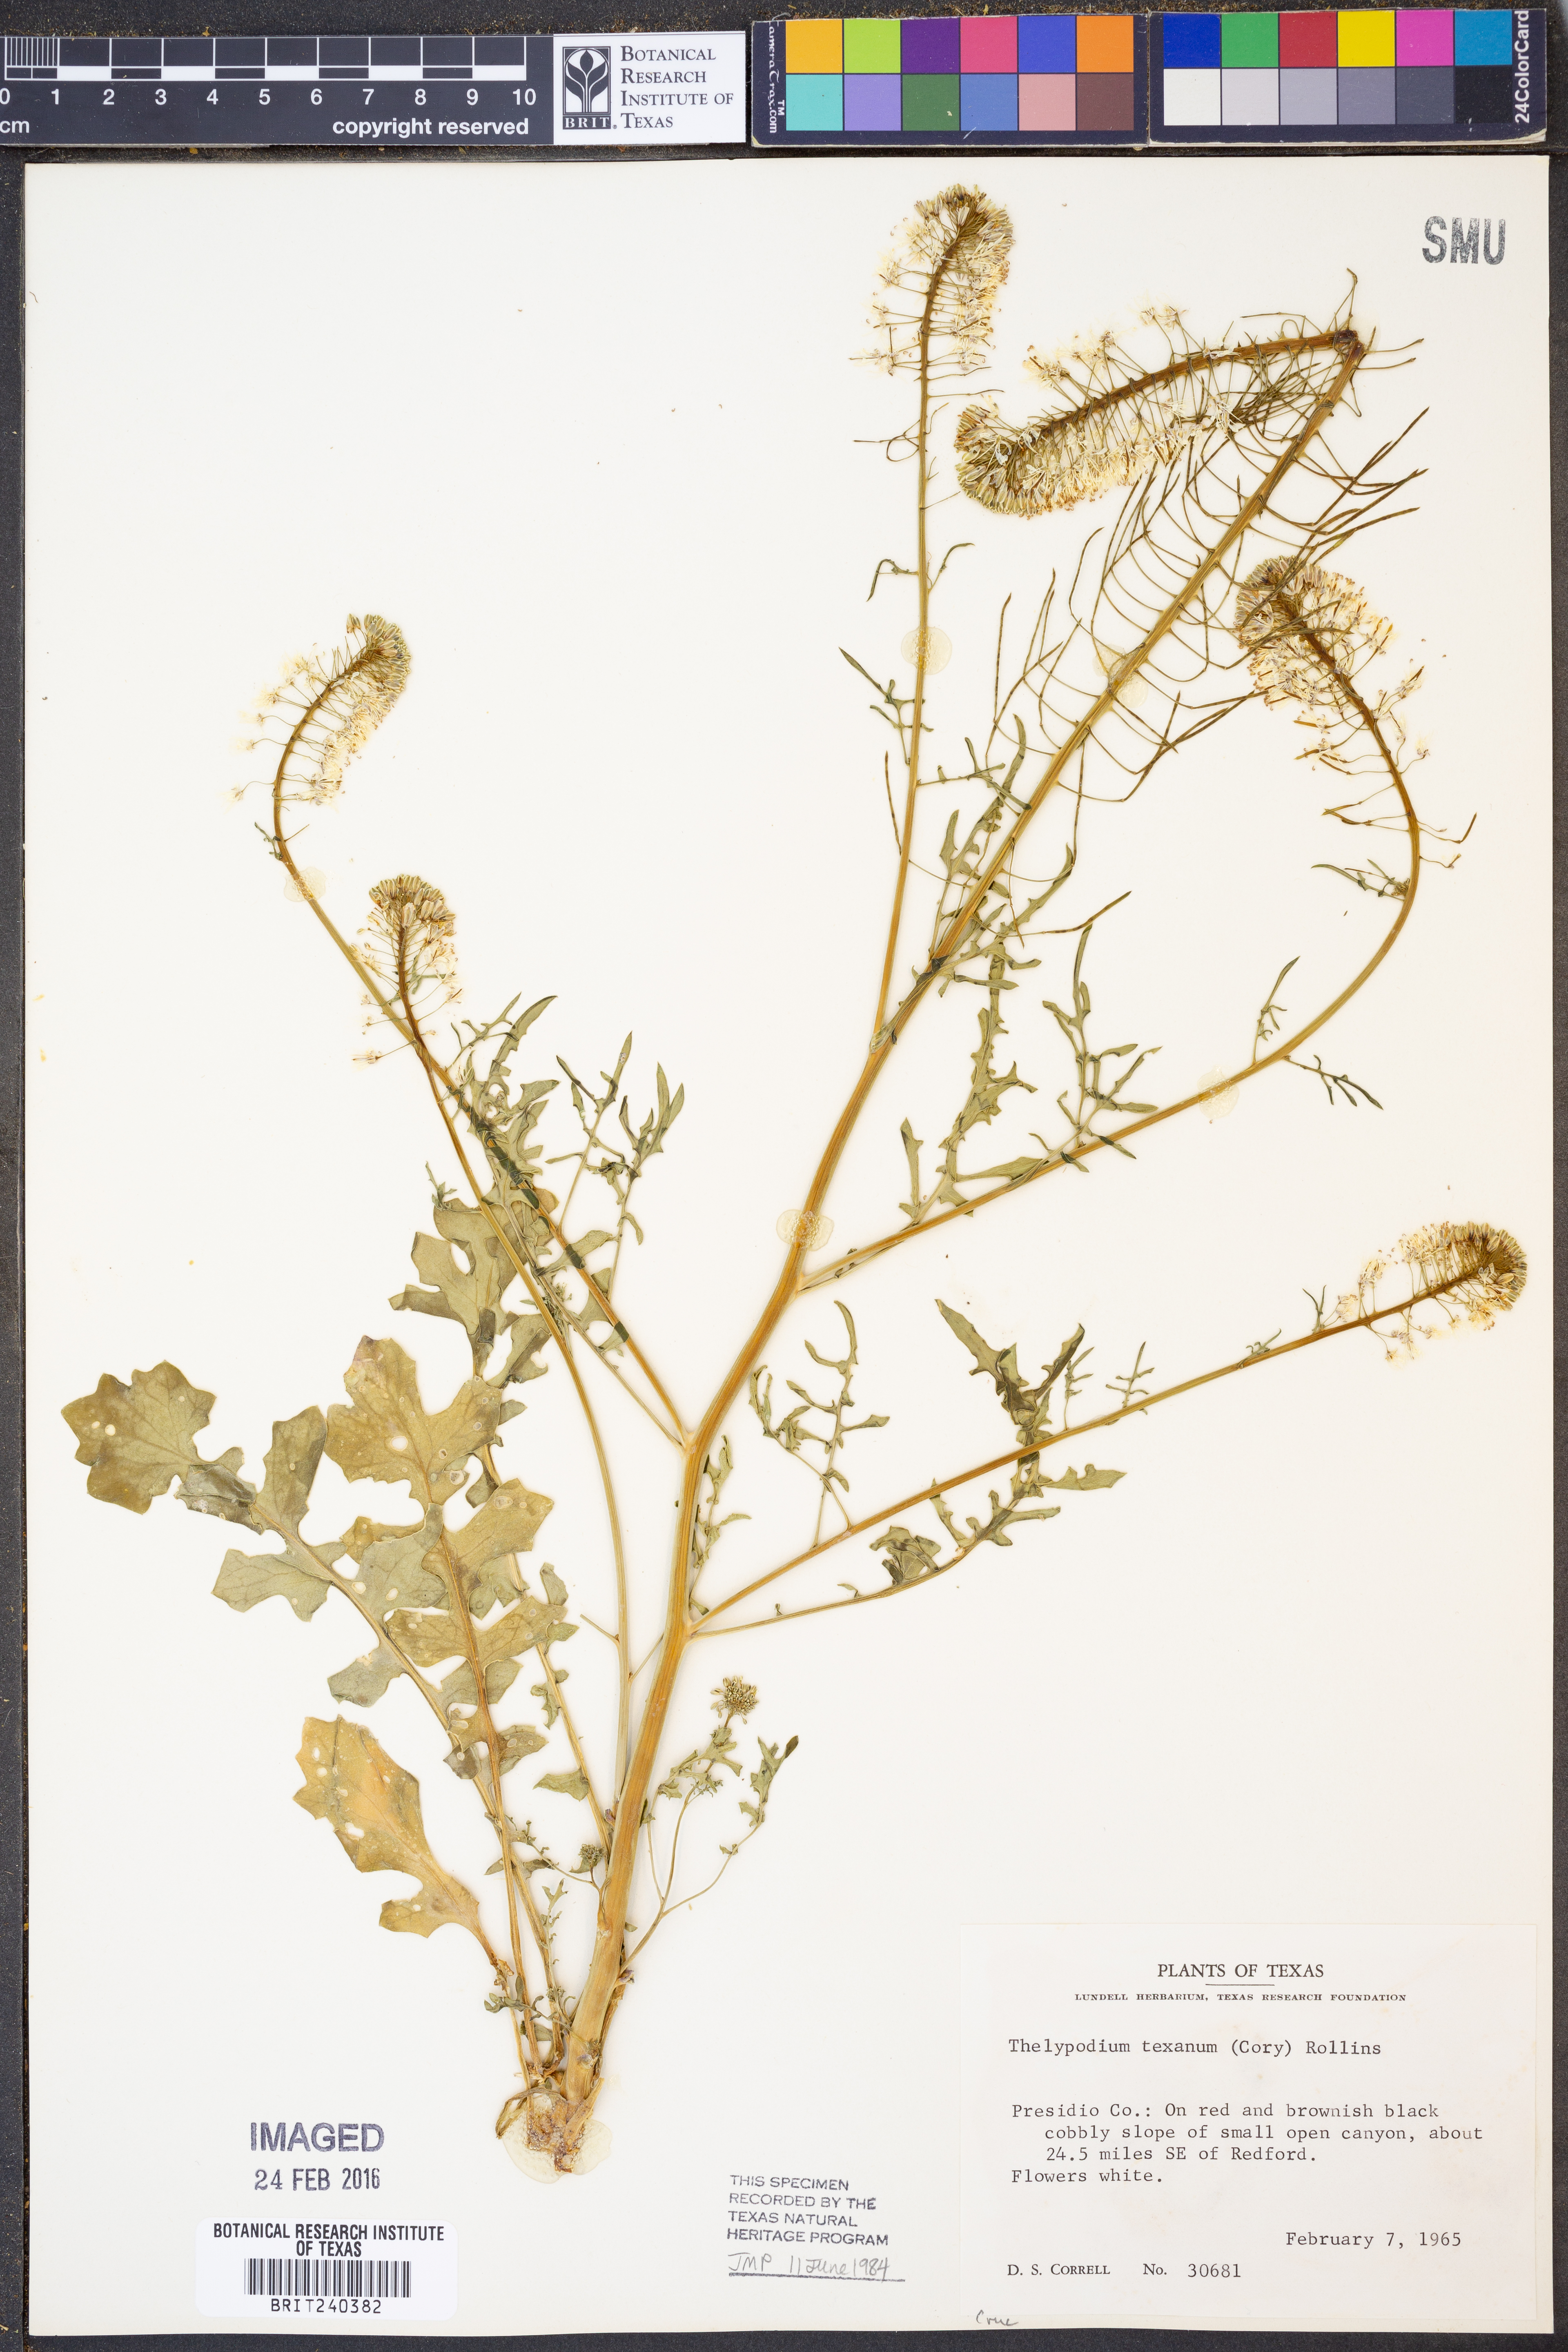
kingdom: Plantae
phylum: Tracheophyta
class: Magnoliopsida
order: Brassicales
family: Brassicaceae
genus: Thelypodium
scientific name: Thelypodium texanum
